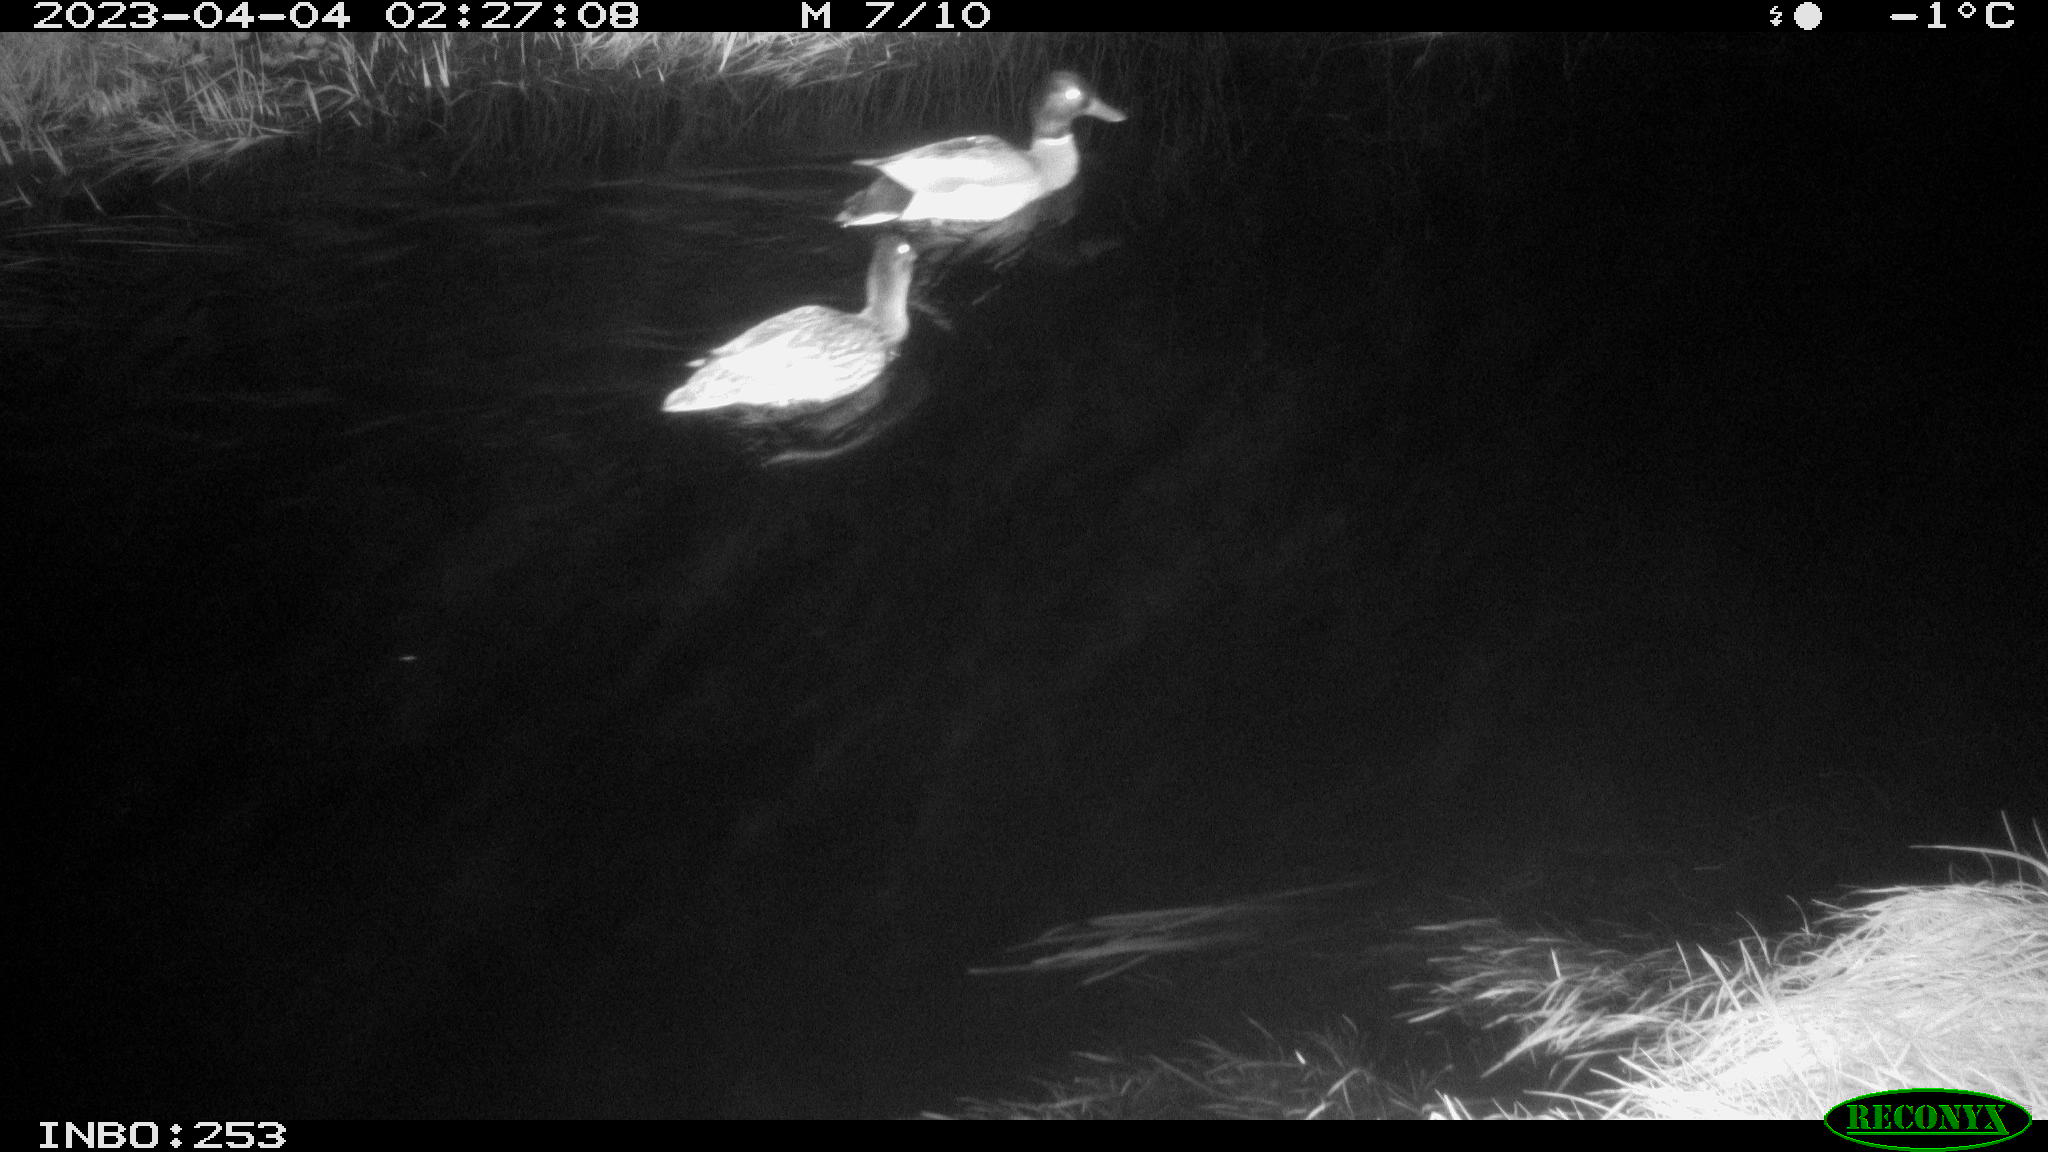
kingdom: Animalia
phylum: Chordata
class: Aves
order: Anseriformes
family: Anatidae
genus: Anas
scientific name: Anas
